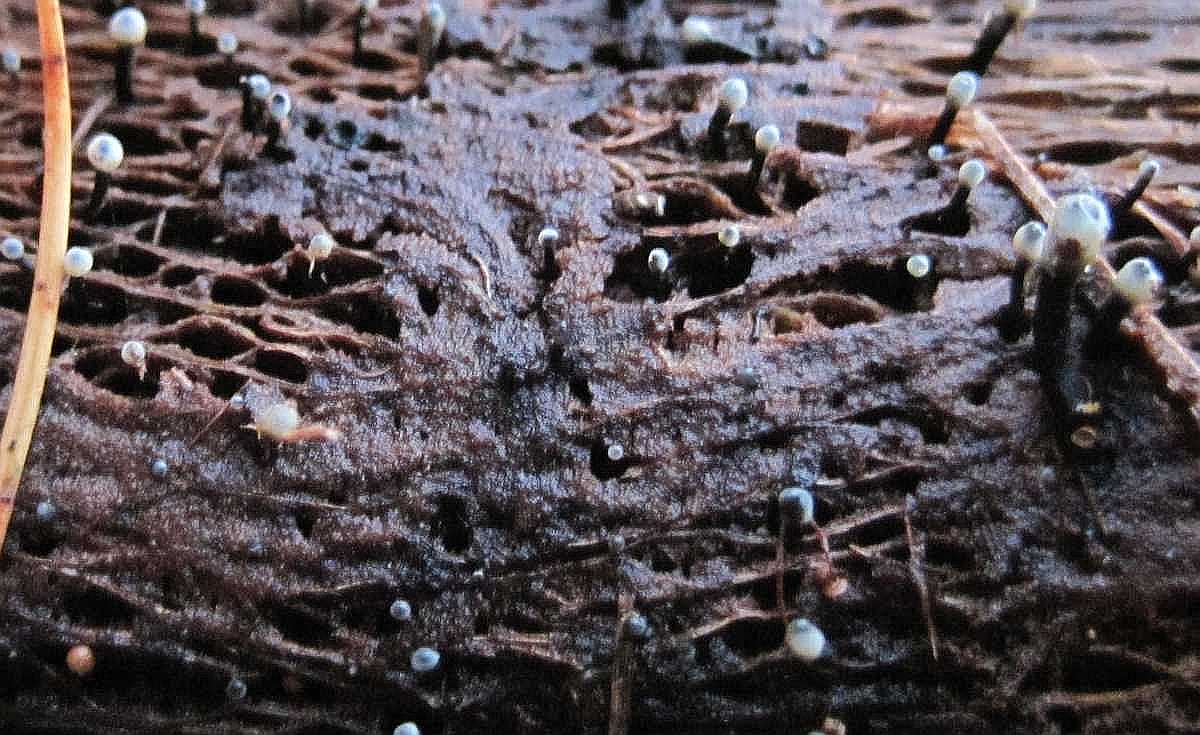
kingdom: Fungi
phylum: Ascomycota
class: Leotiomycetes
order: Helotiales
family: Bulgariaceae
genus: Holwaya
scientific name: Holwaya mucida
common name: lindeskive
